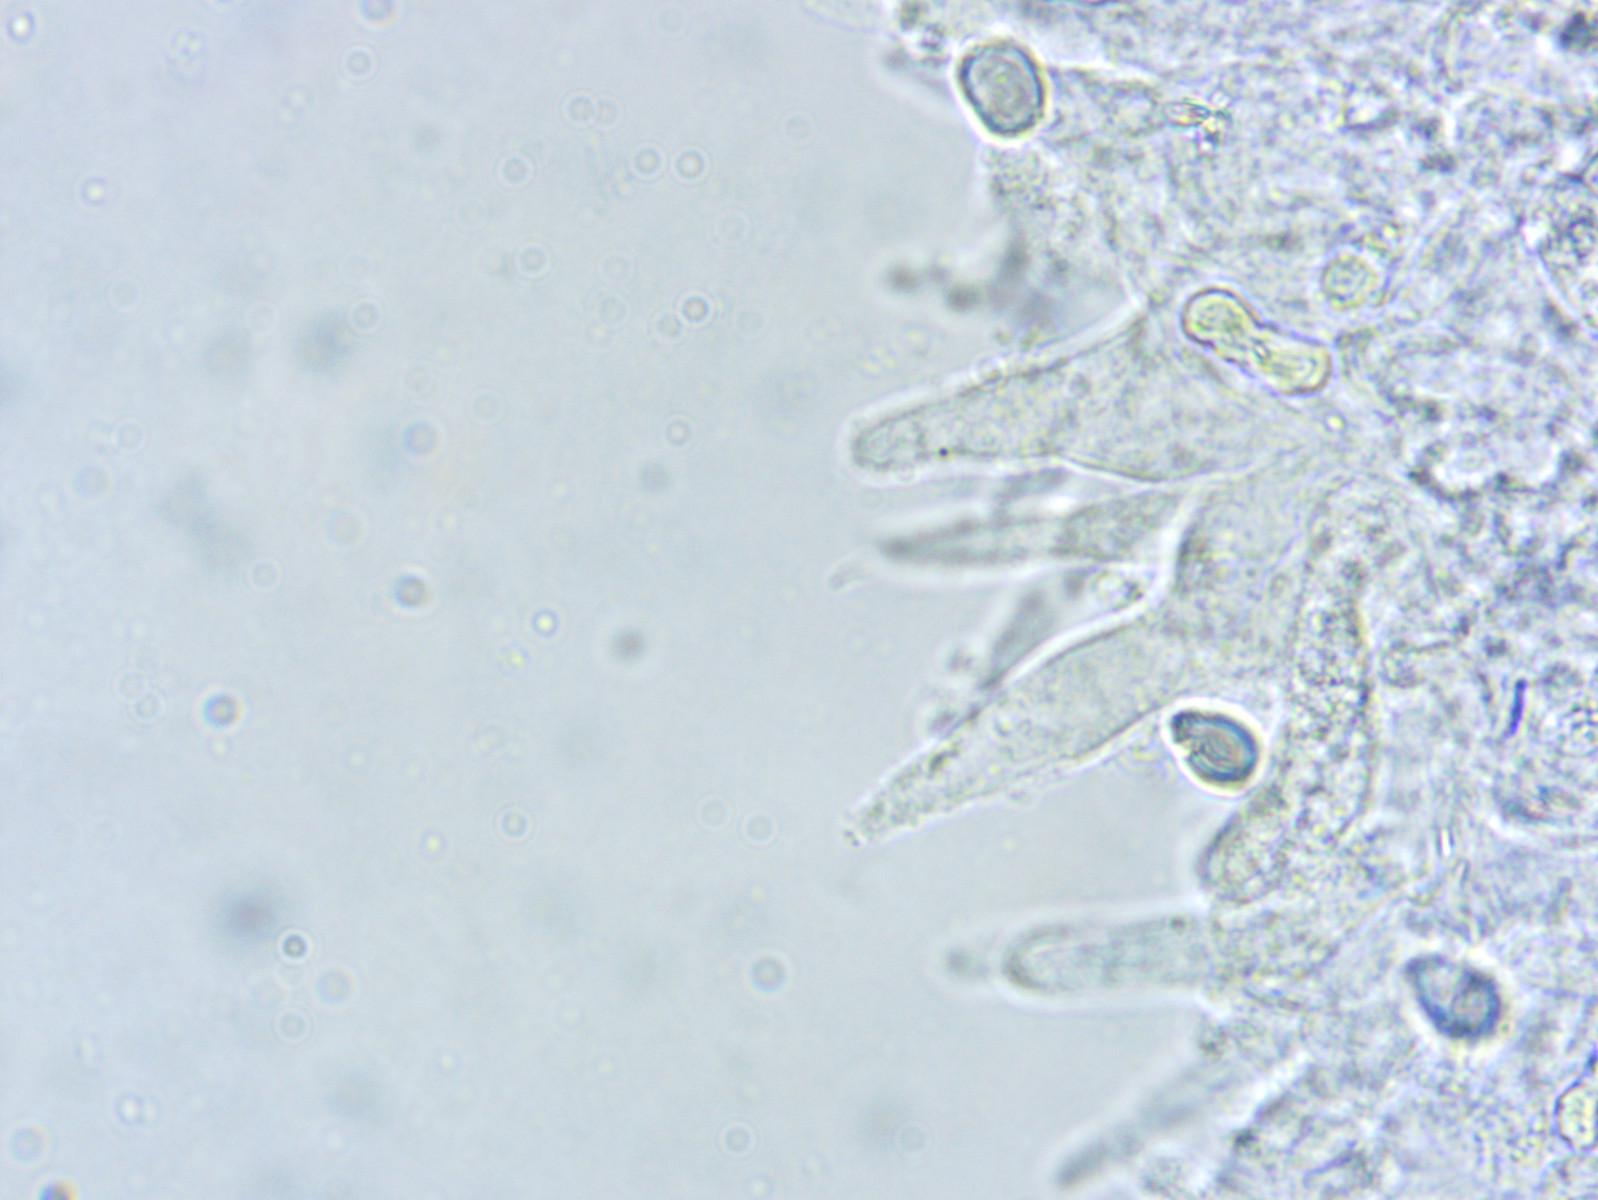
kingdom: Fungi
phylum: Basidiomycota
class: Agaricomycetes
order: Agaricales
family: Mycenaceae
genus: Mycena
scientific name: Mycena abramsii
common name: sommer-huesvamp
